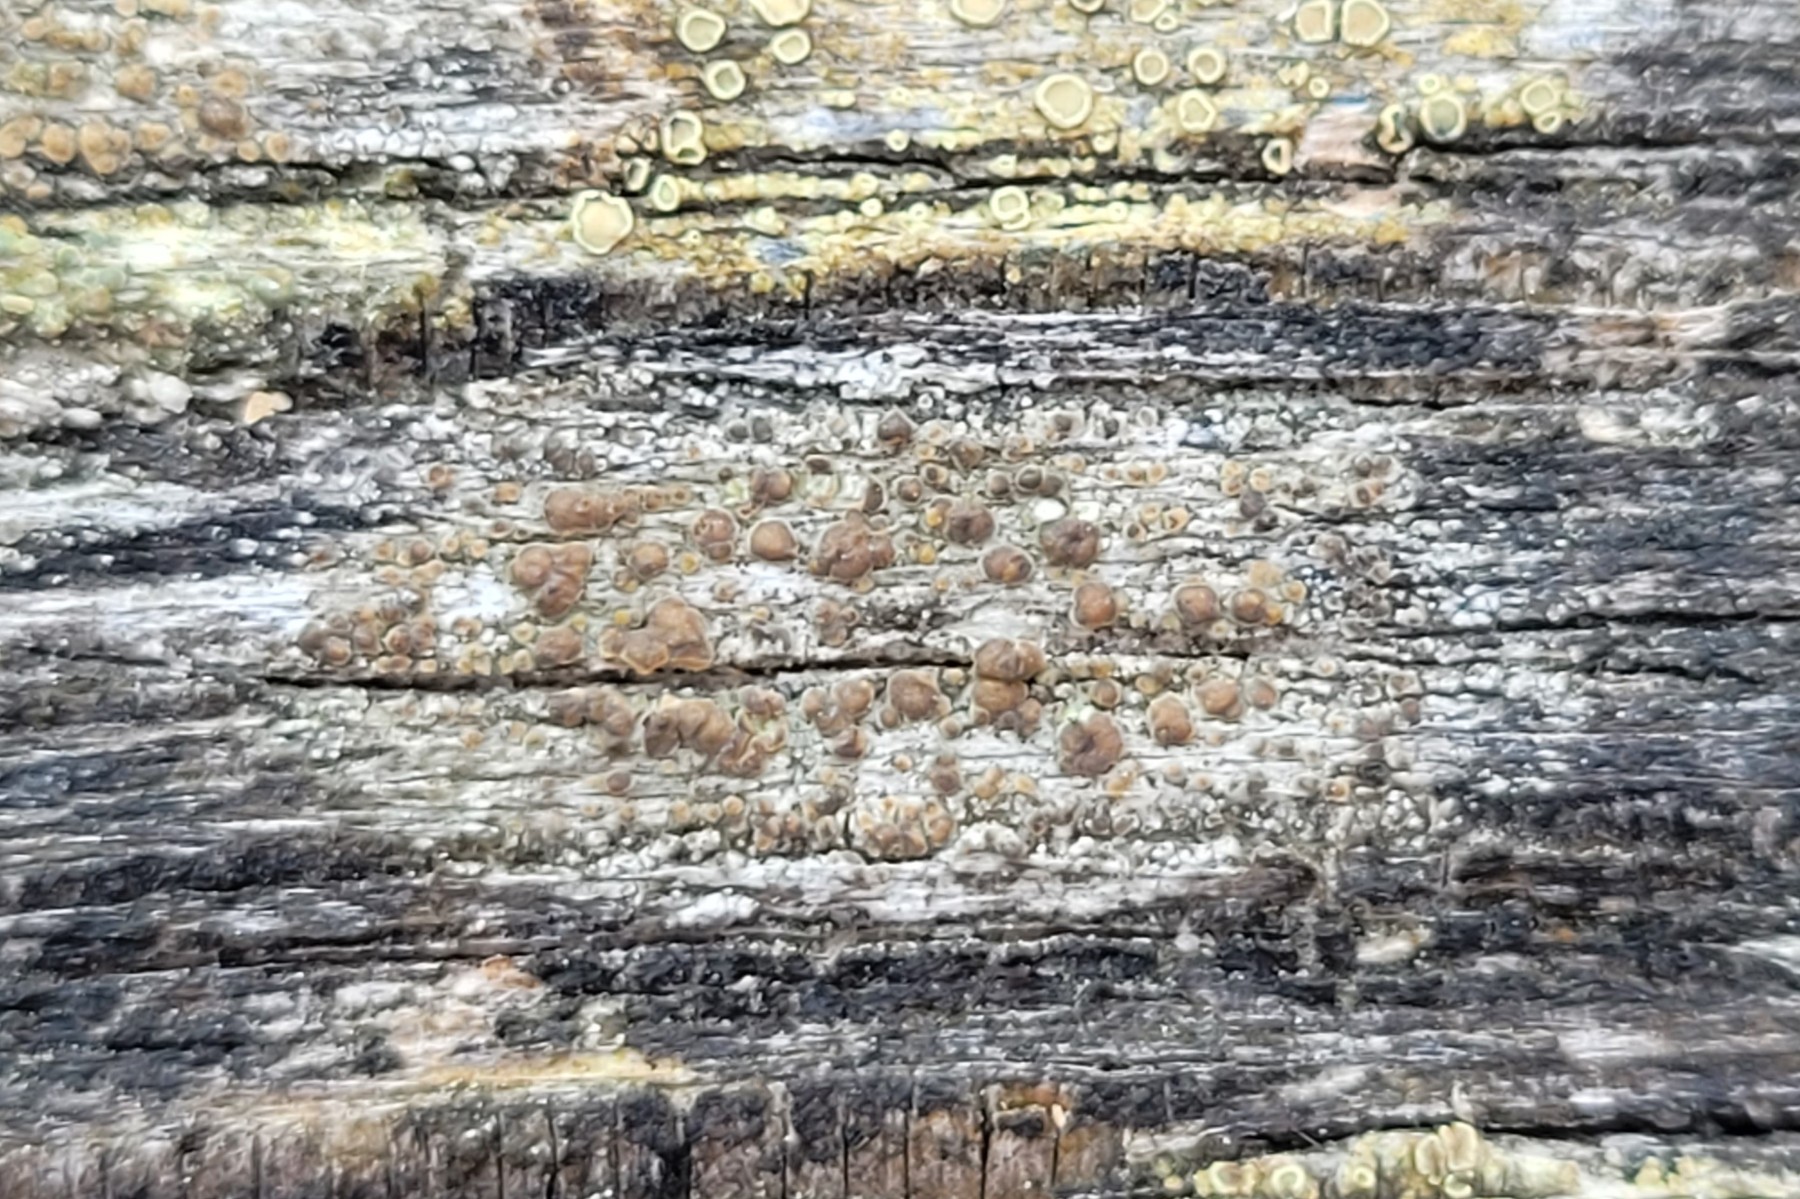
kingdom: Fungi
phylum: Ascomycota
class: Lecanoromycetes
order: Lecanorales
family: Lecanoraceae
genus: Lecanora
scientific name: Lecanora saligna
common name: ved-kantskivelav
